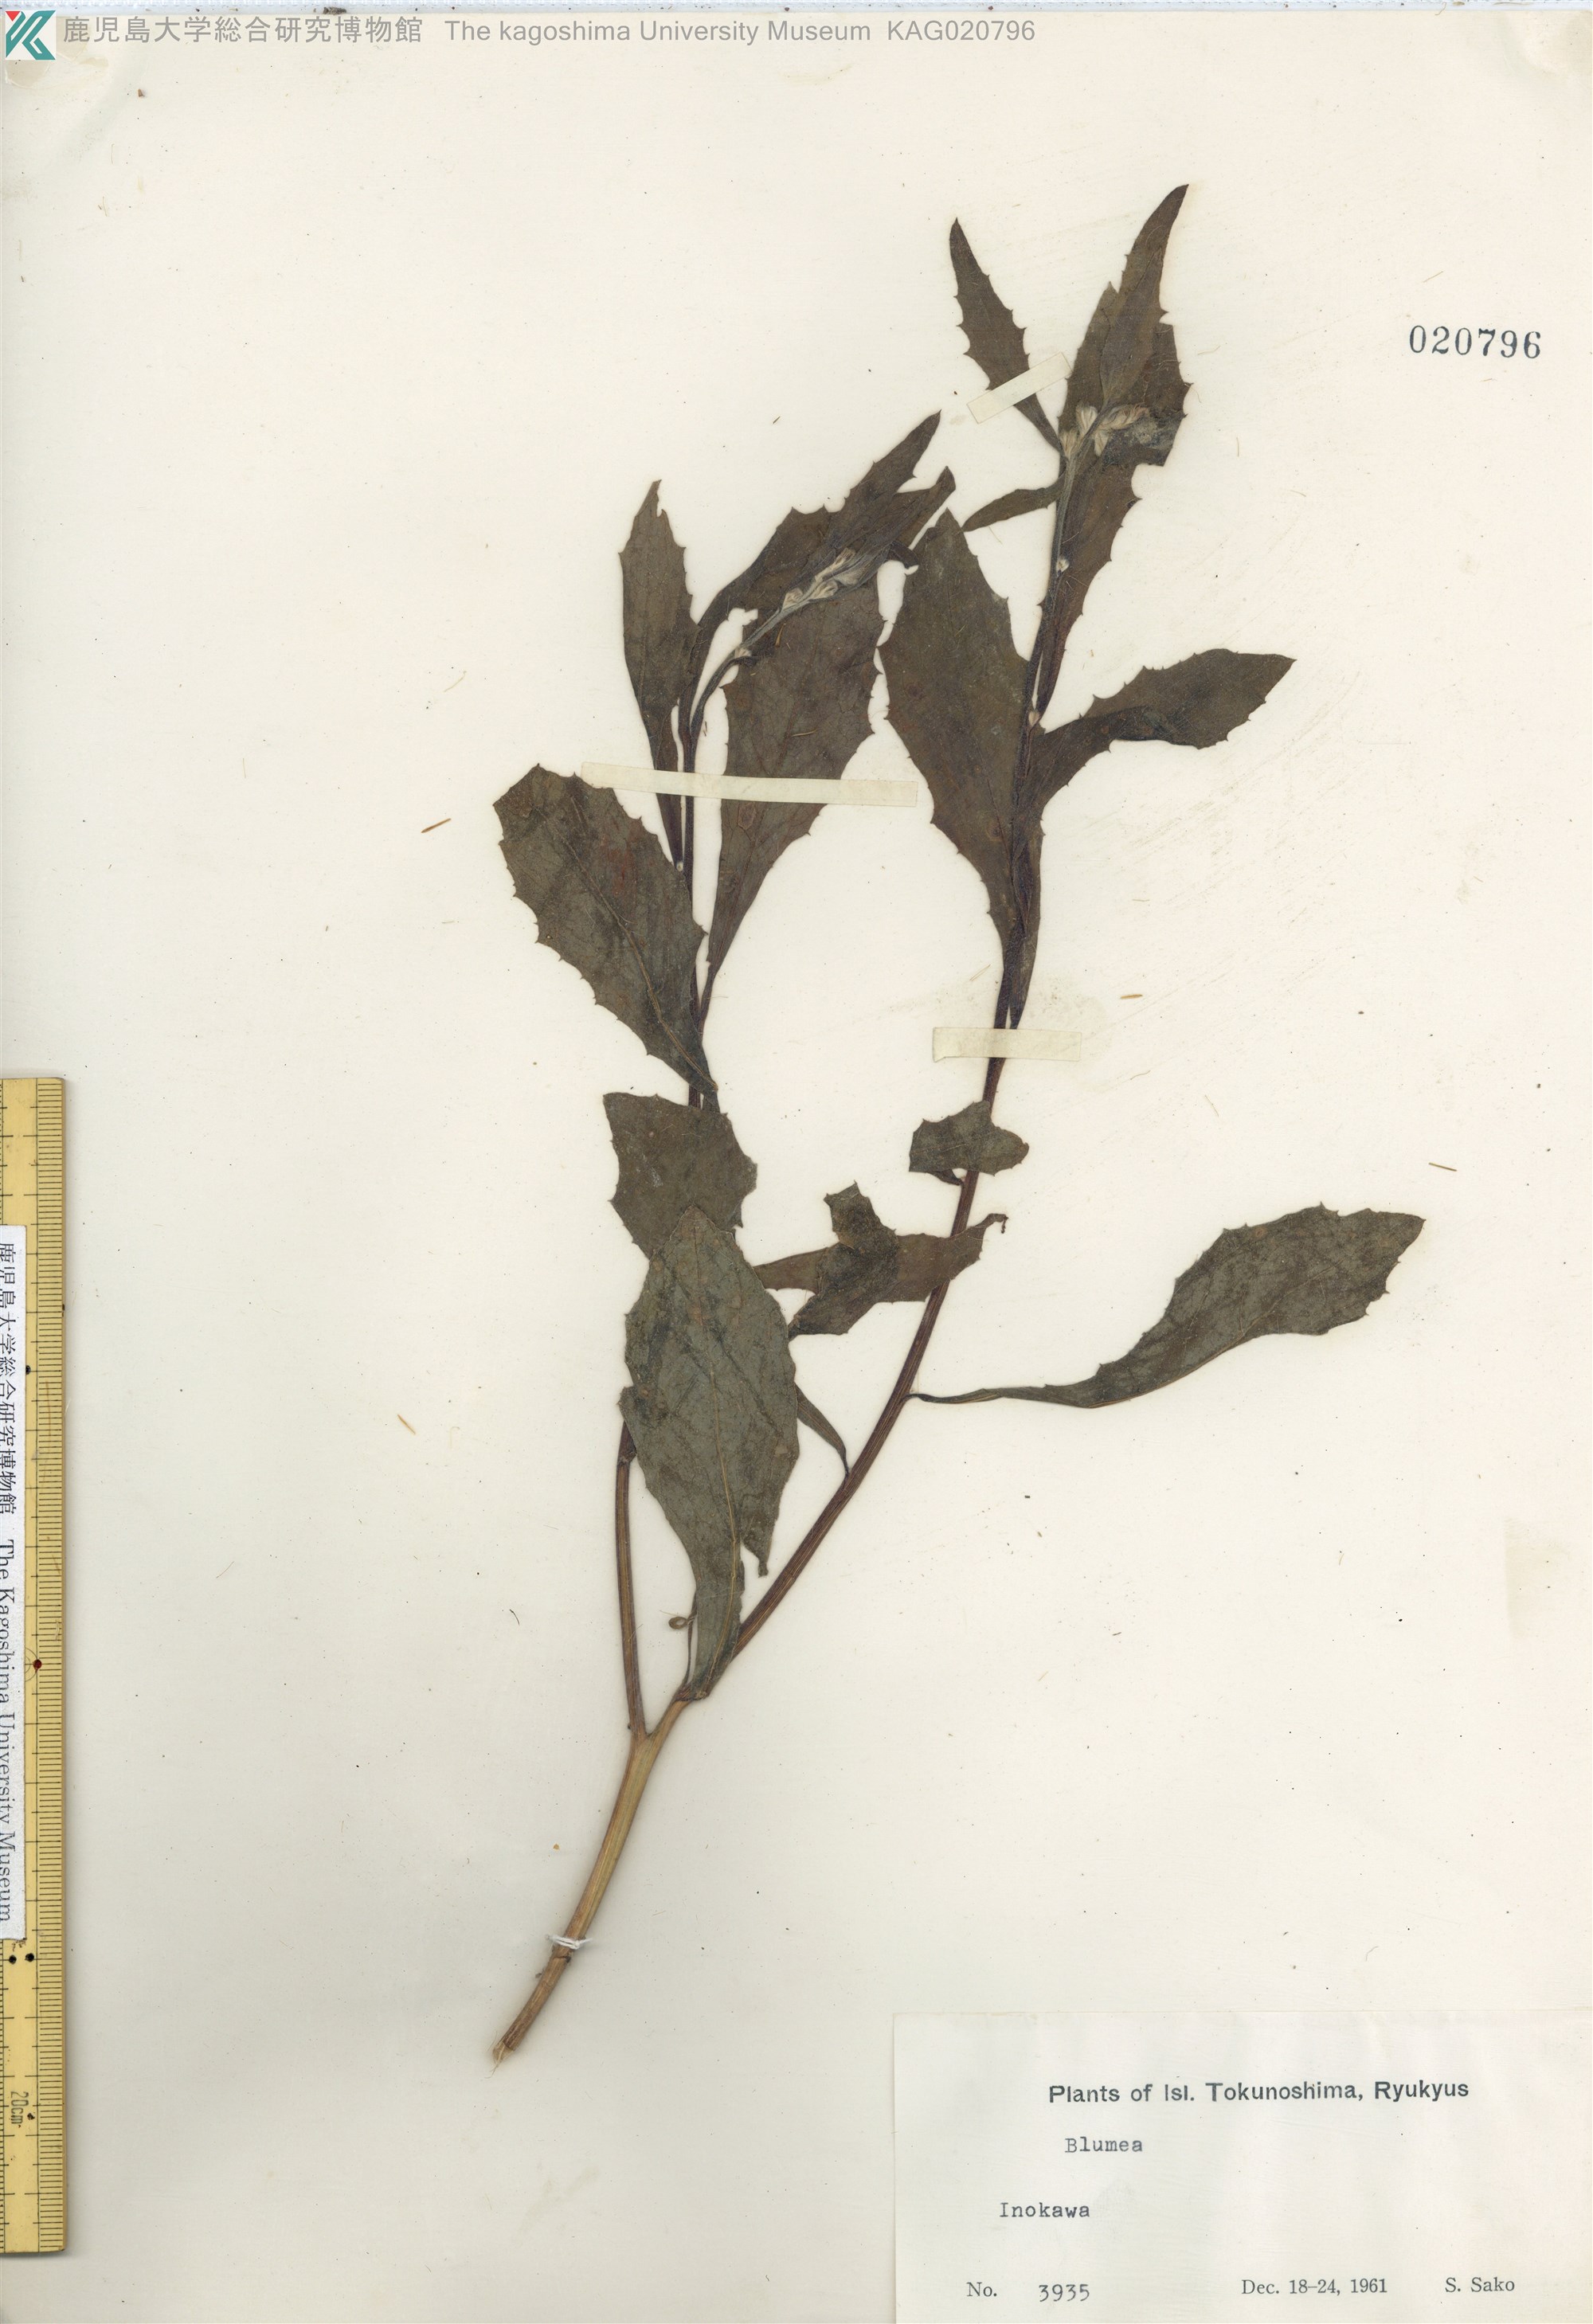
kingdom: Plantae
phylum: Tracheophyta
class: Magnoliopsida
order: Asterales
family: Asteraceae
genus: Blumea
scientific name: Blumea lacera
